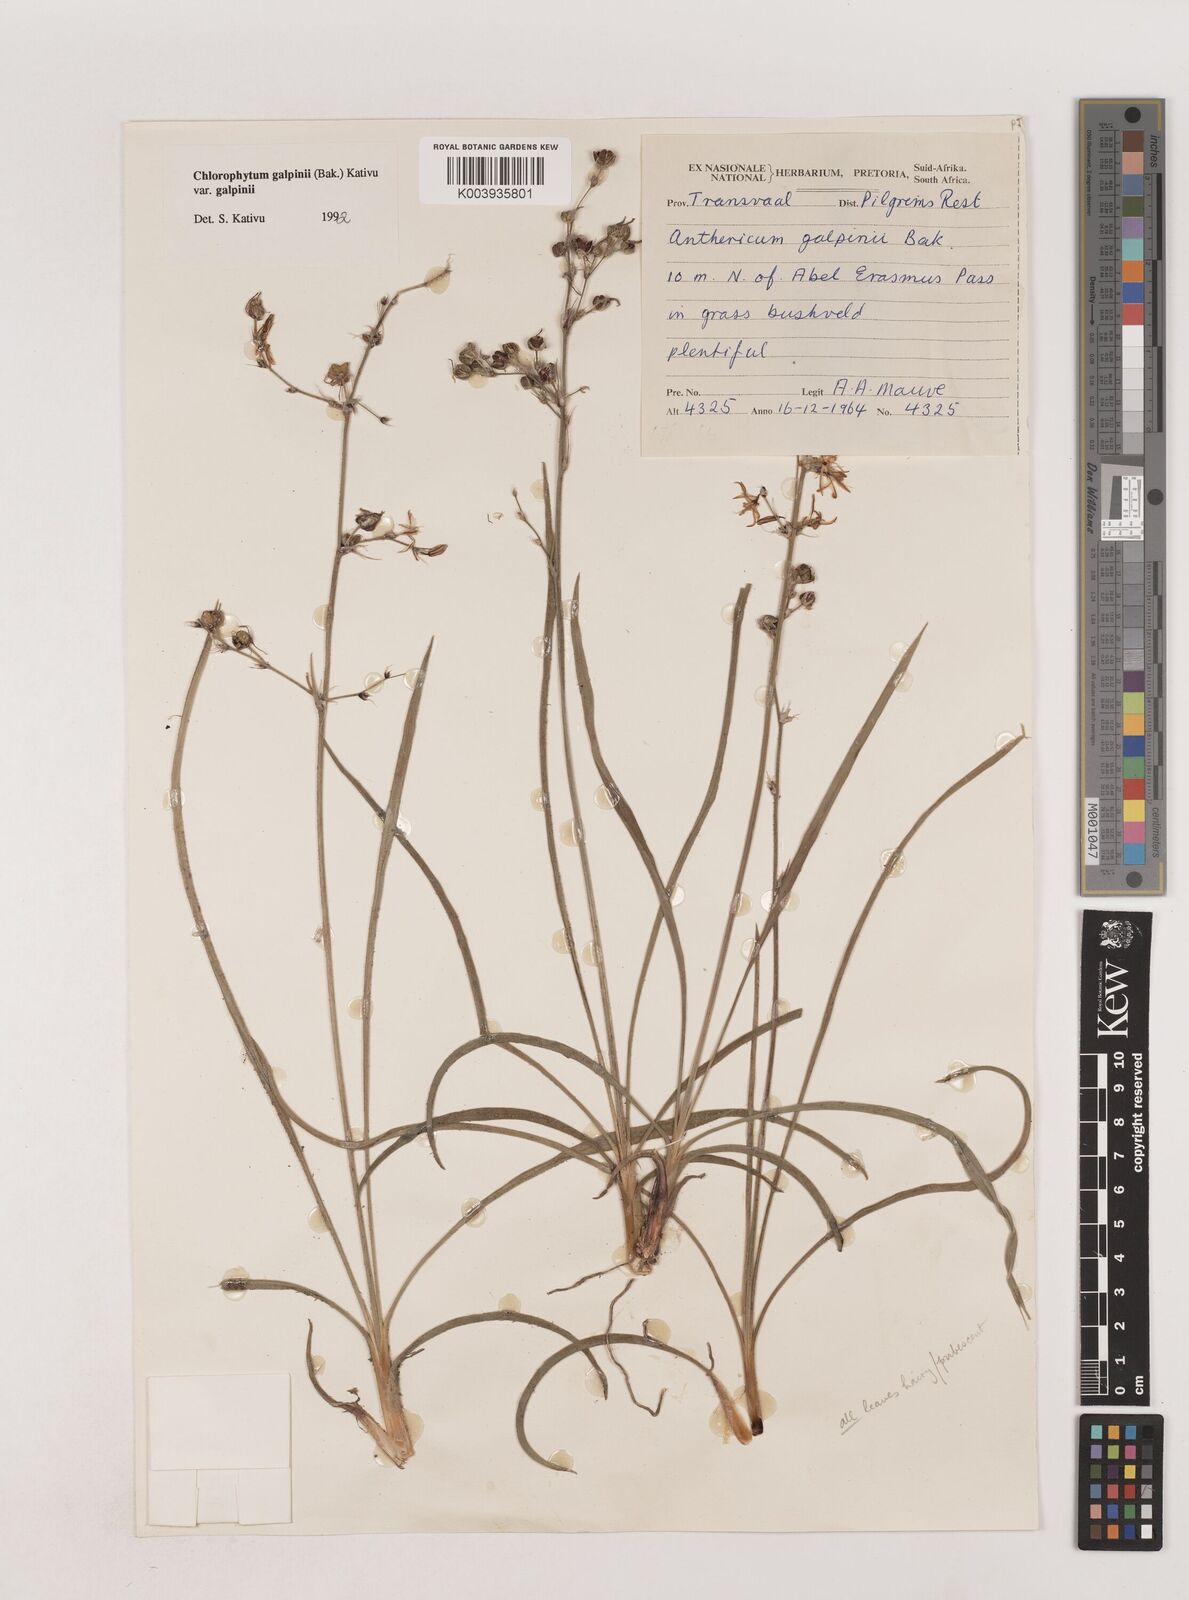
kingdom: Plantae
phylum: Tracheophyta
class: Liliopsida
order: Asparagales
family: Asparagaceae
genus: Chlorophytum
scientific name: Chlorophytum galpinii
